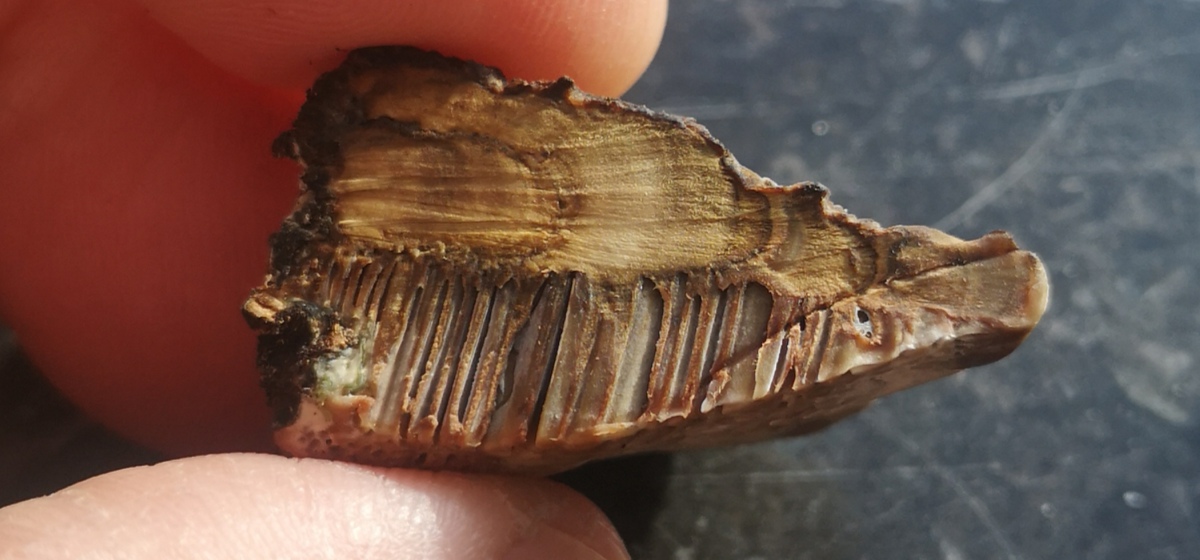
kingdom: Fungi
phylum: Basidiomycota
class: Agaricomycetes
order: Polyporales
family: Polyporaceae
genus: Daedaleopsis
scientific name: Daedaleopsis confragosa
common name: rødmende læderporesvamp
